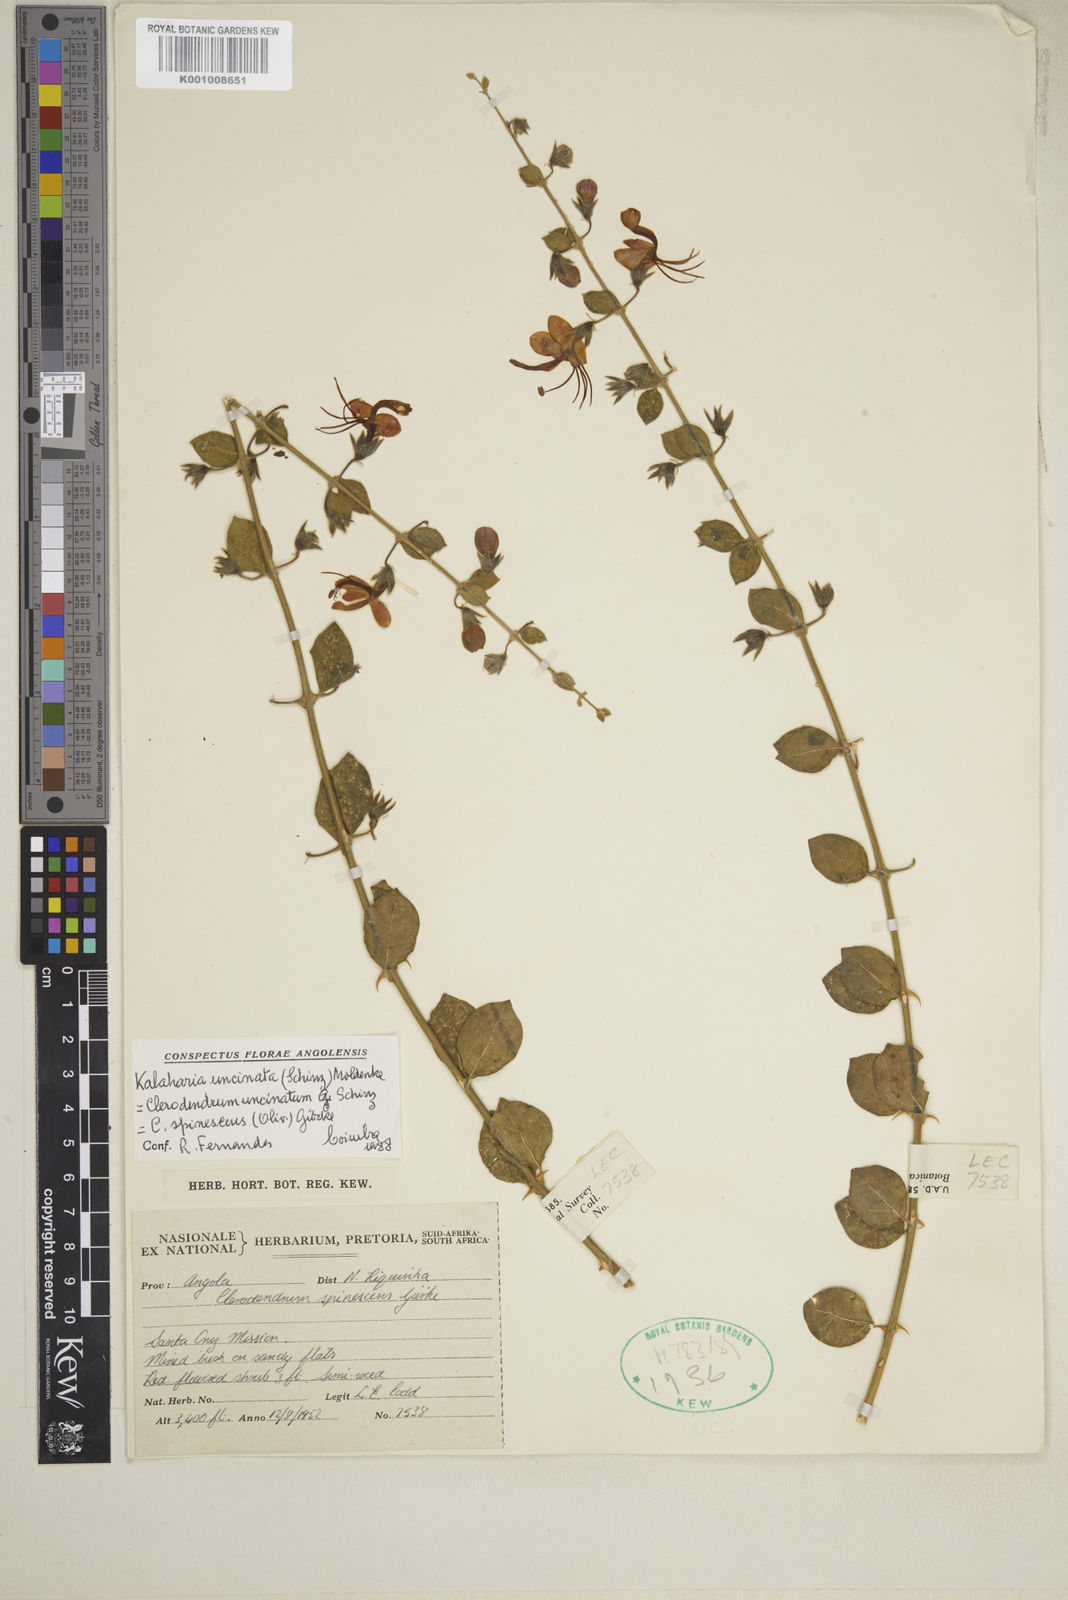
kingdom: Plantae
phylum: Tracheophyta
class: Magnoliopsida
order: Lamiales
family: Lamiaceae
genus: Kalaharia
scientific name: Kalaharia uncinata
